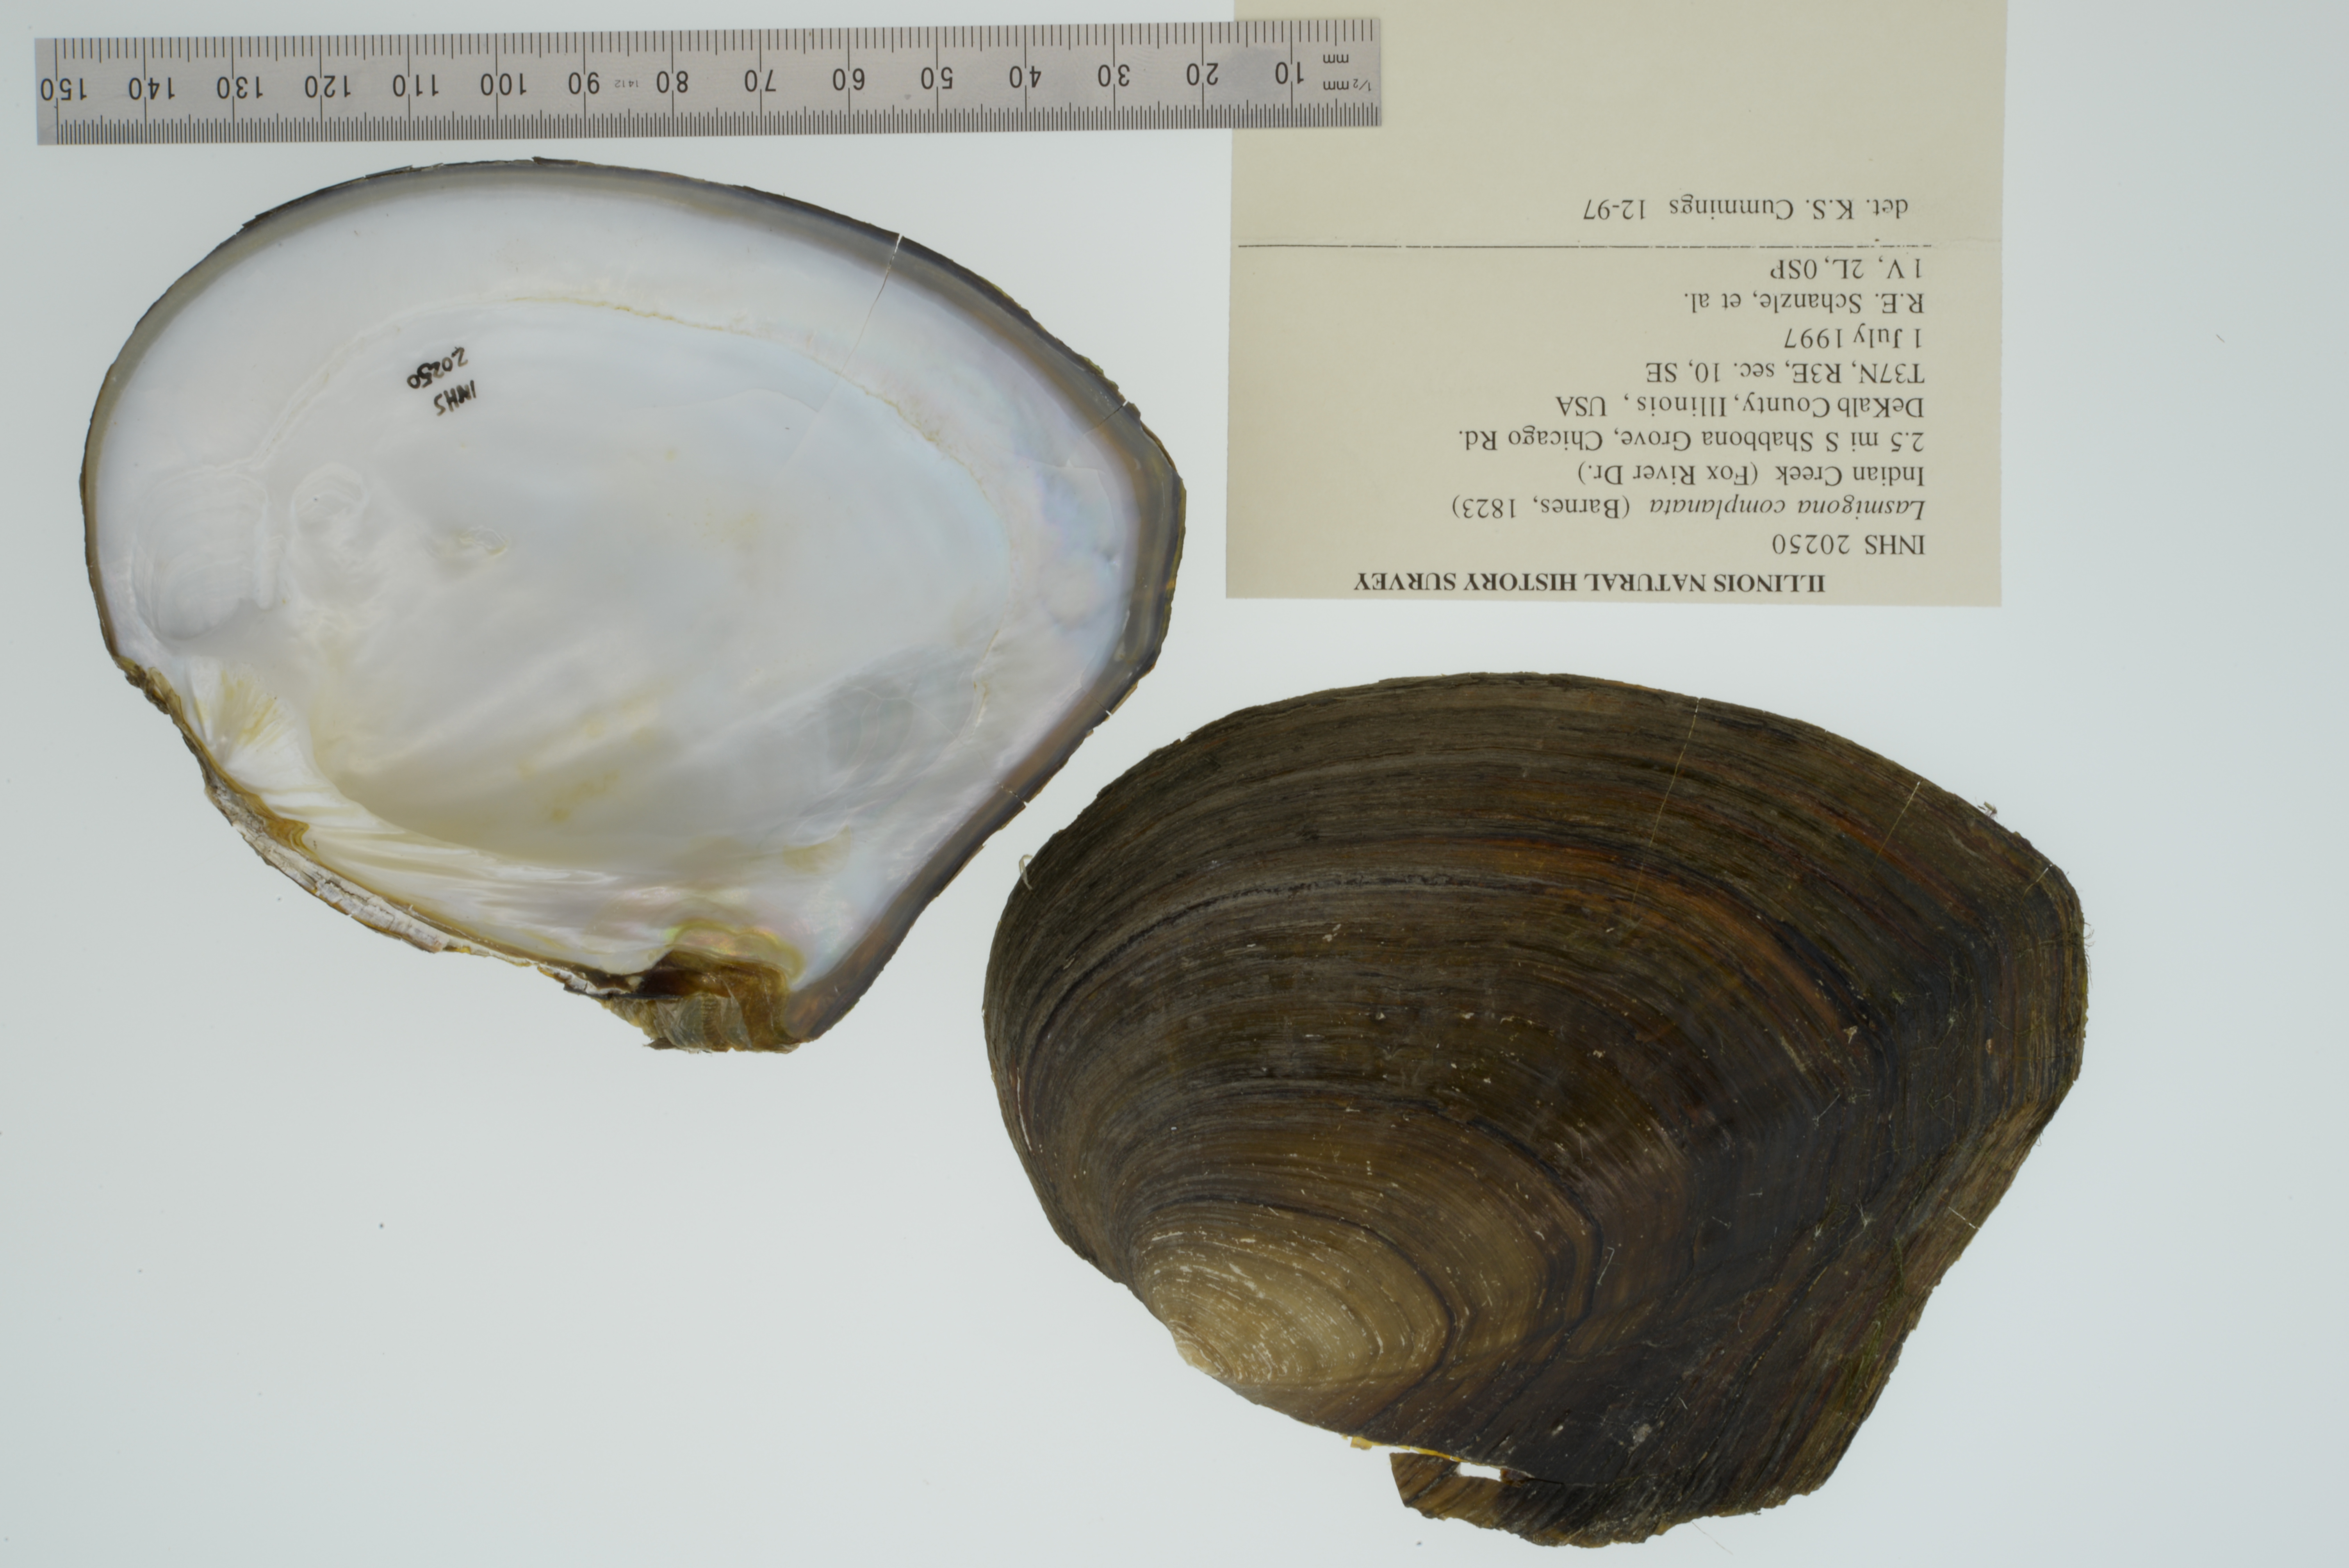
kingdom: Animalia
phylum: Mollusca
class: Bivalvia
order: Unionida
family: Unionidae
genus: Lasmigona
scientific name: Lasmigona complanata
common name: White heelsplitter
